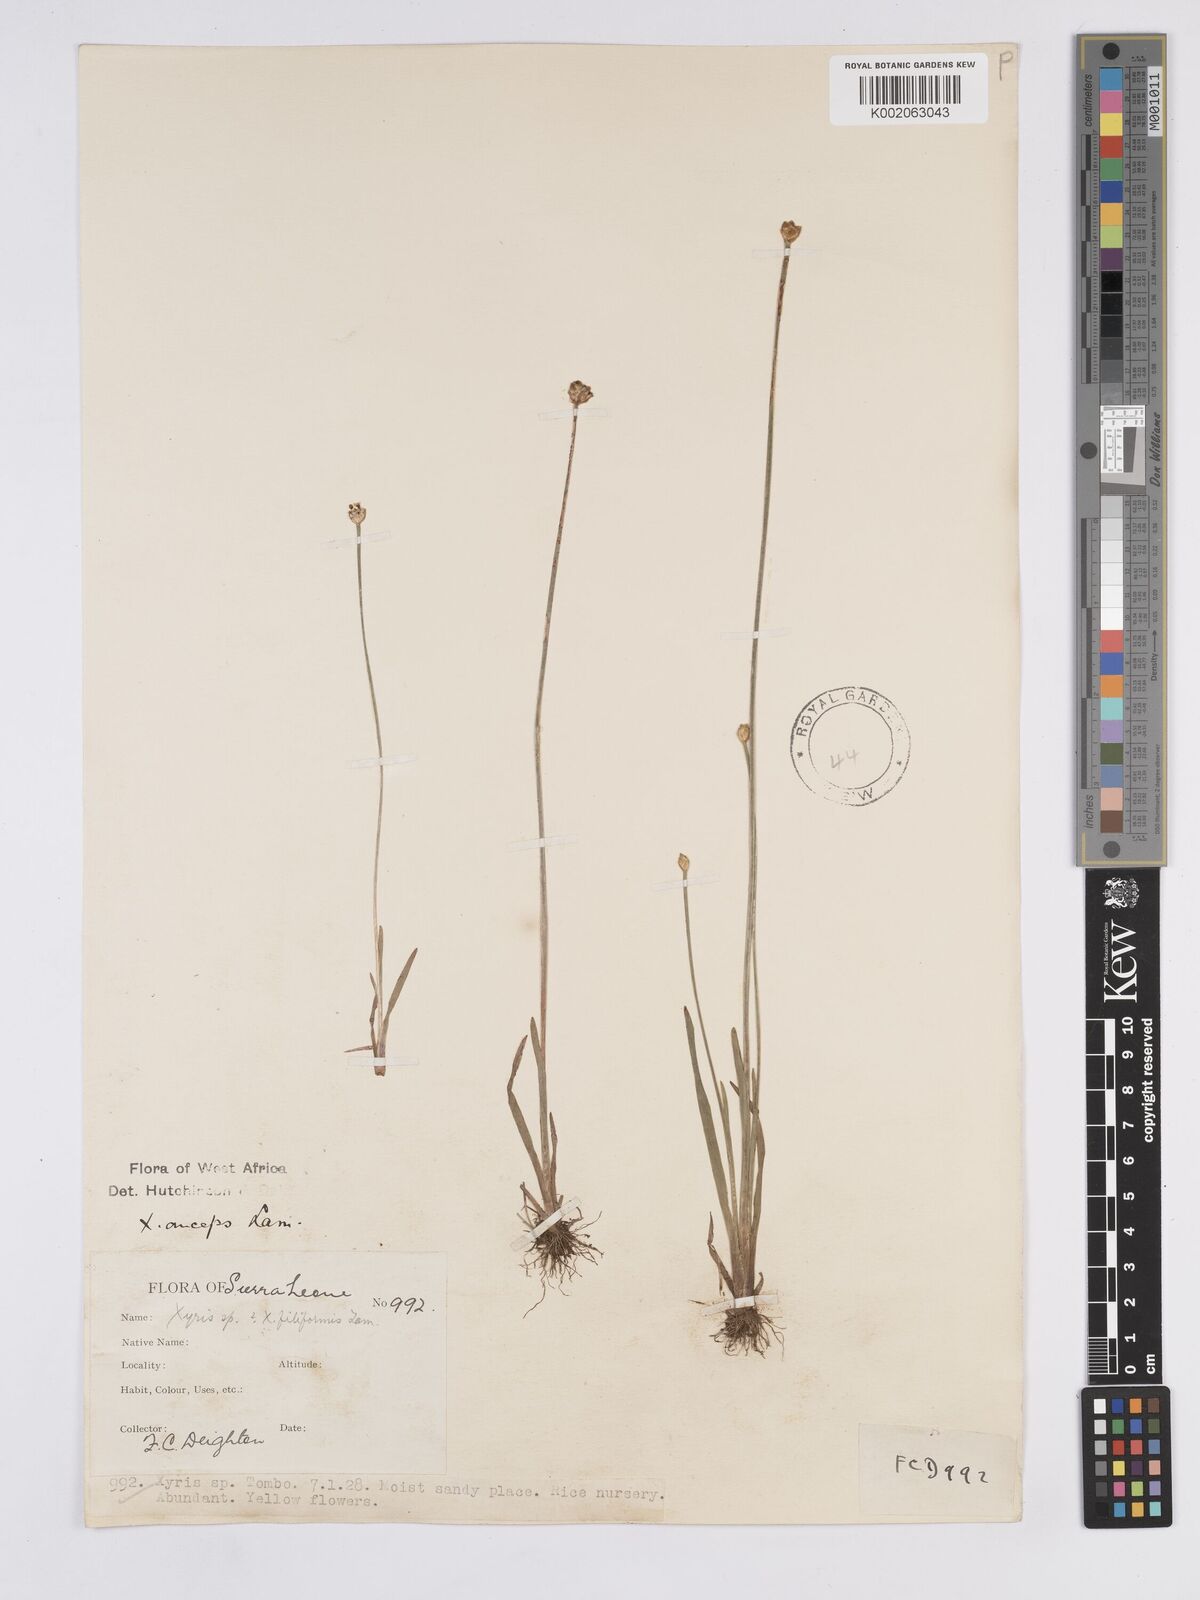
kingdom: Plantae
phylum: Tracheophyta
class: Liliopsida
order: Poales
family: Xyridaceae
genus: Xyris
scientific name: Xyris anceps
